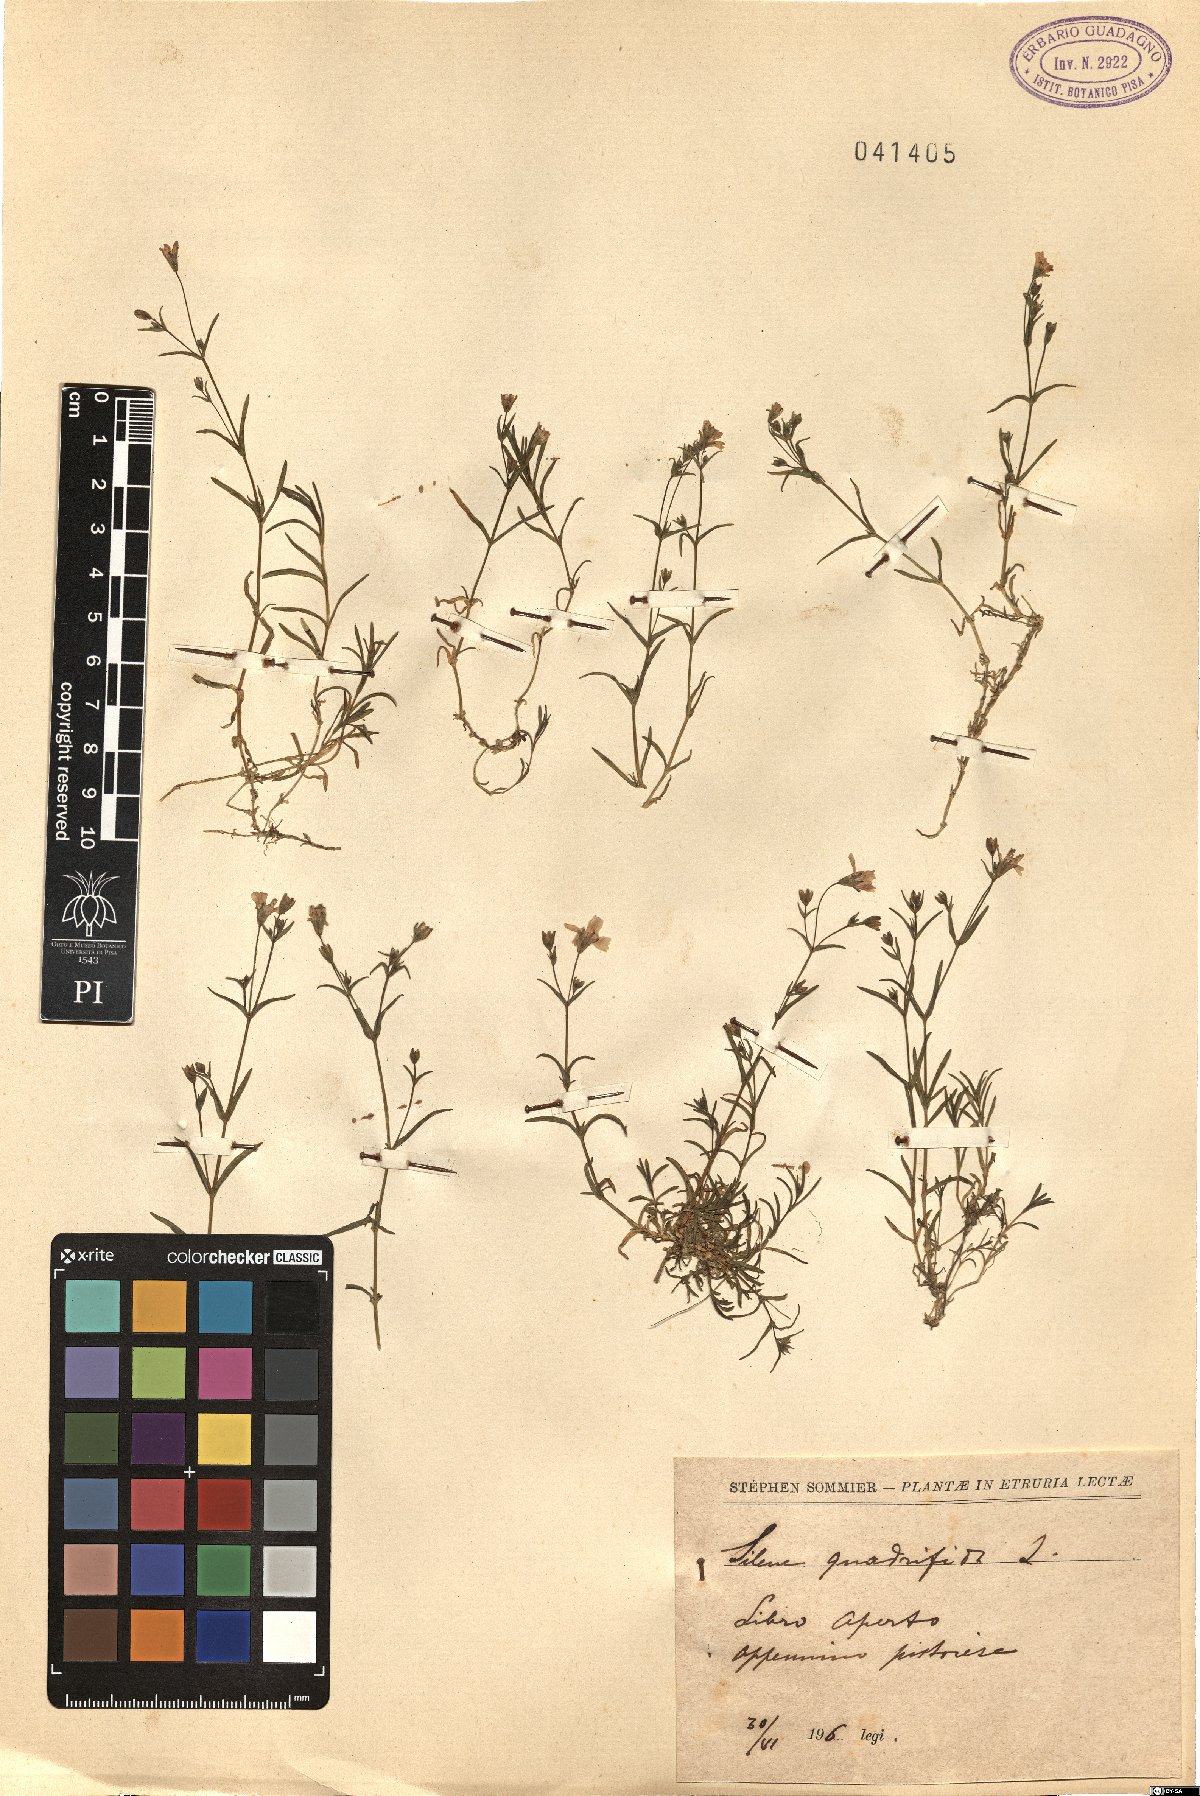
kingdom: Plantae
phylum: Tracheophyta
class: Magnoliopsida
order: Caryophyllales
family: Caryophyllaceae
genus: Heliosperma
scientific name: Heliosperma alpestre
